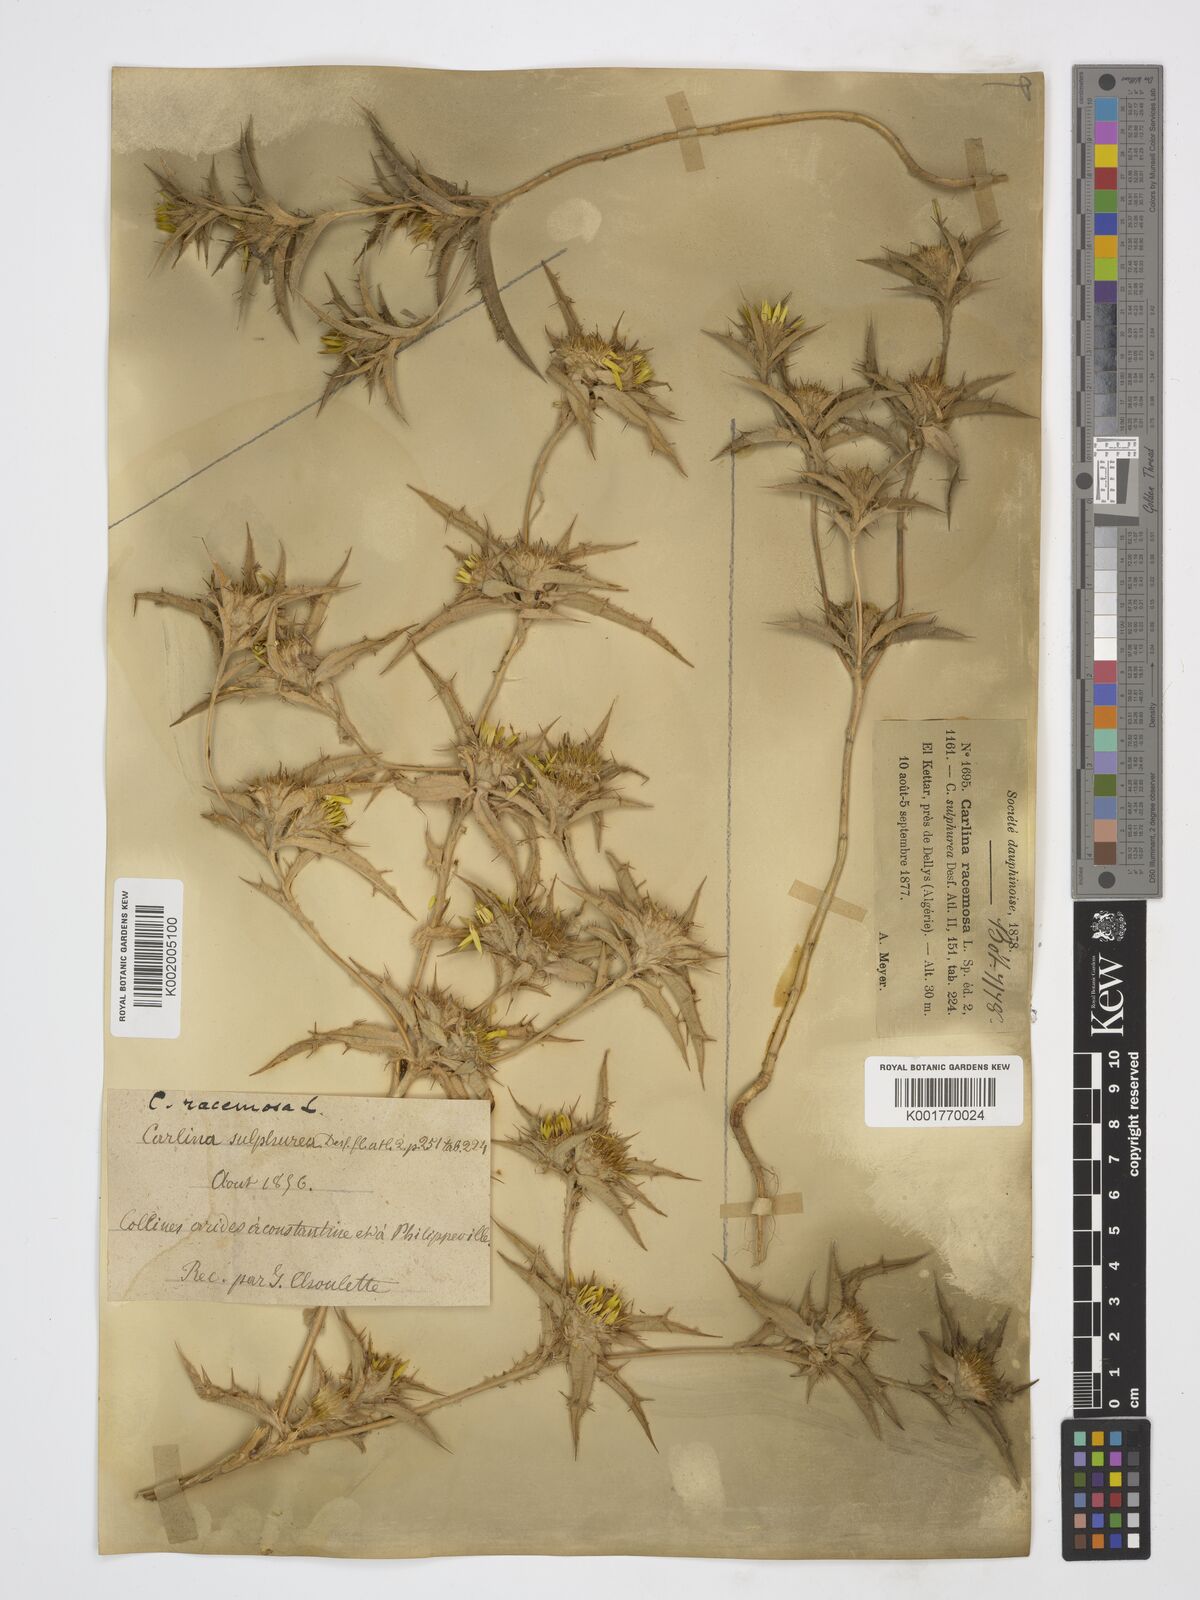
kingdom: Plantae
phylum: Tracheophyta
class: Magnoliopsida
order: Asterales
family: Asteraceae
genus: Carlina
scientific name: Carlina racemosa
